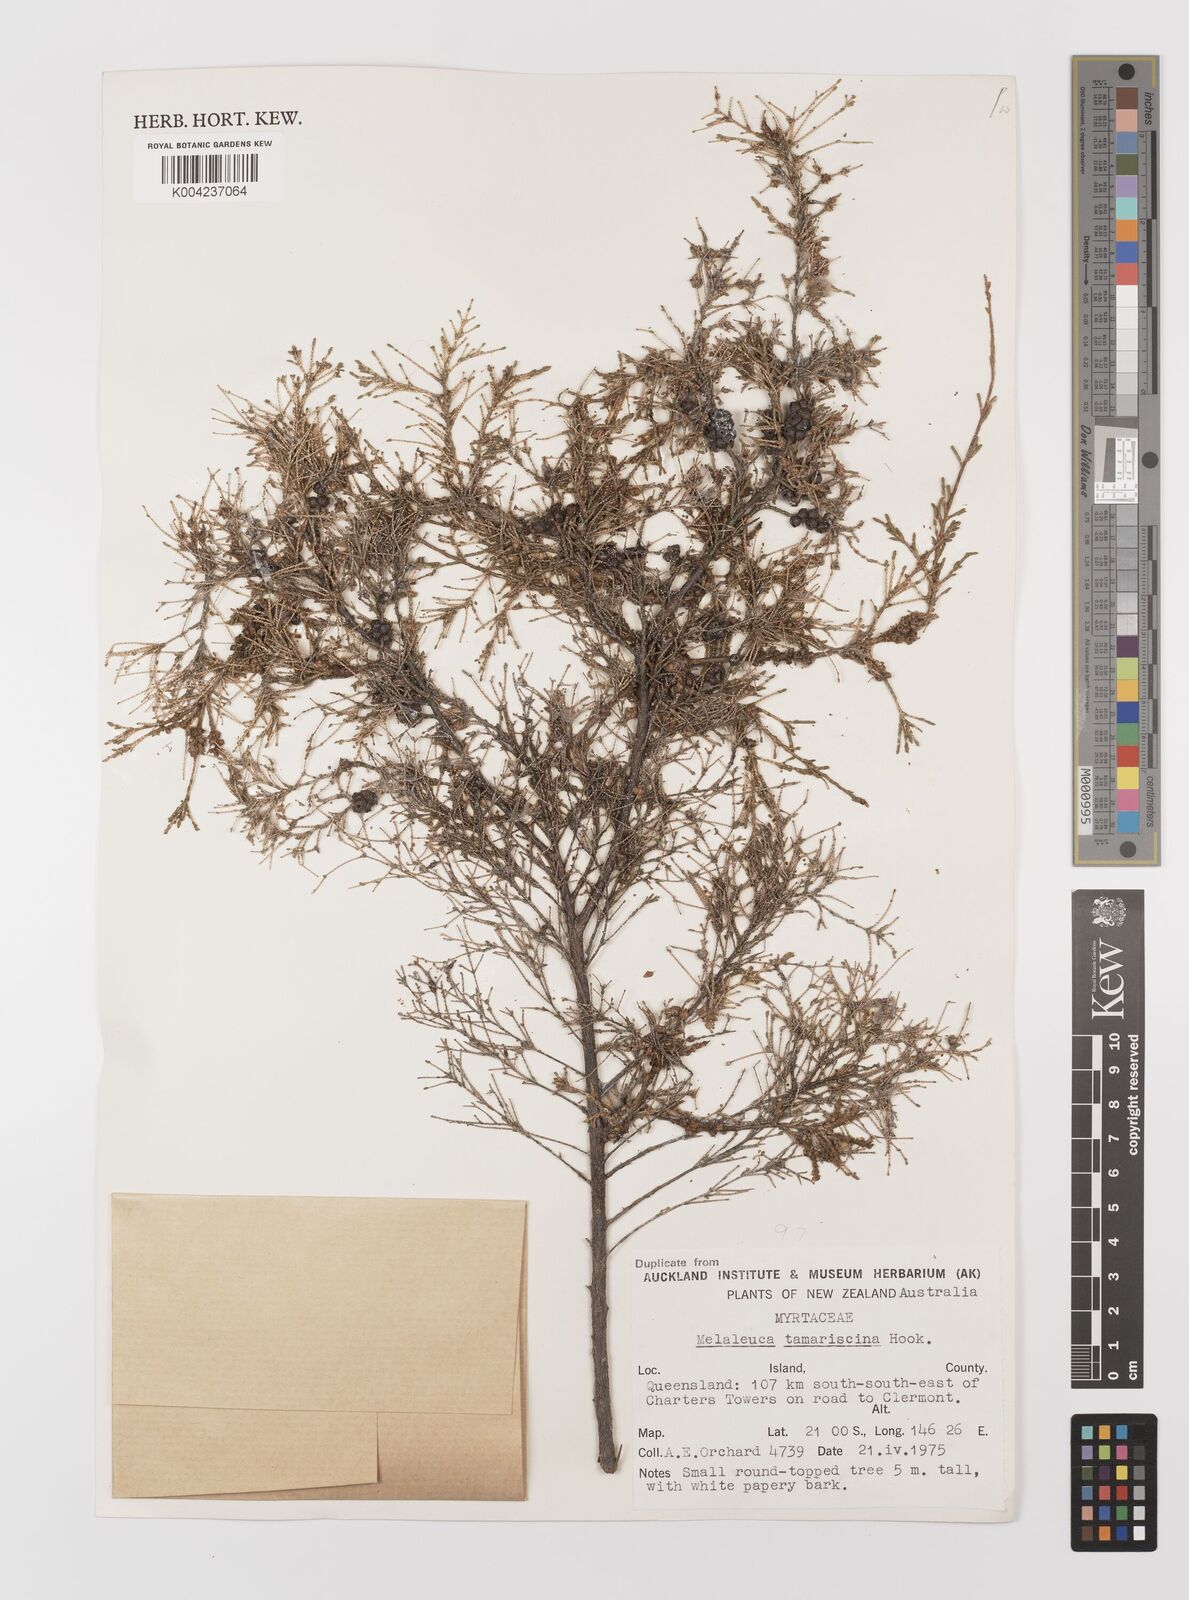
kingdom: Plantae
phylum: Tracheophyta
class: Magnoliopsida
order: Myrtales
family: Myrtaceae
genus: Melaleuca
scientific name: Melaleuca tamariscina
